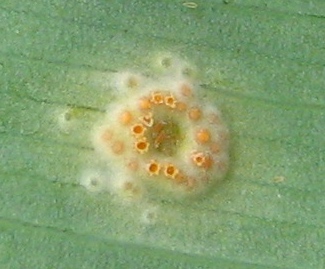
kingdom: Fungi
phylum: Basidiomycota
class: Pucciniomycetes
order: Pucciniales
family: Pucciniaceae
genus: Puccinia
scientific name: Puccinia sessilis
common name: Arum rust
